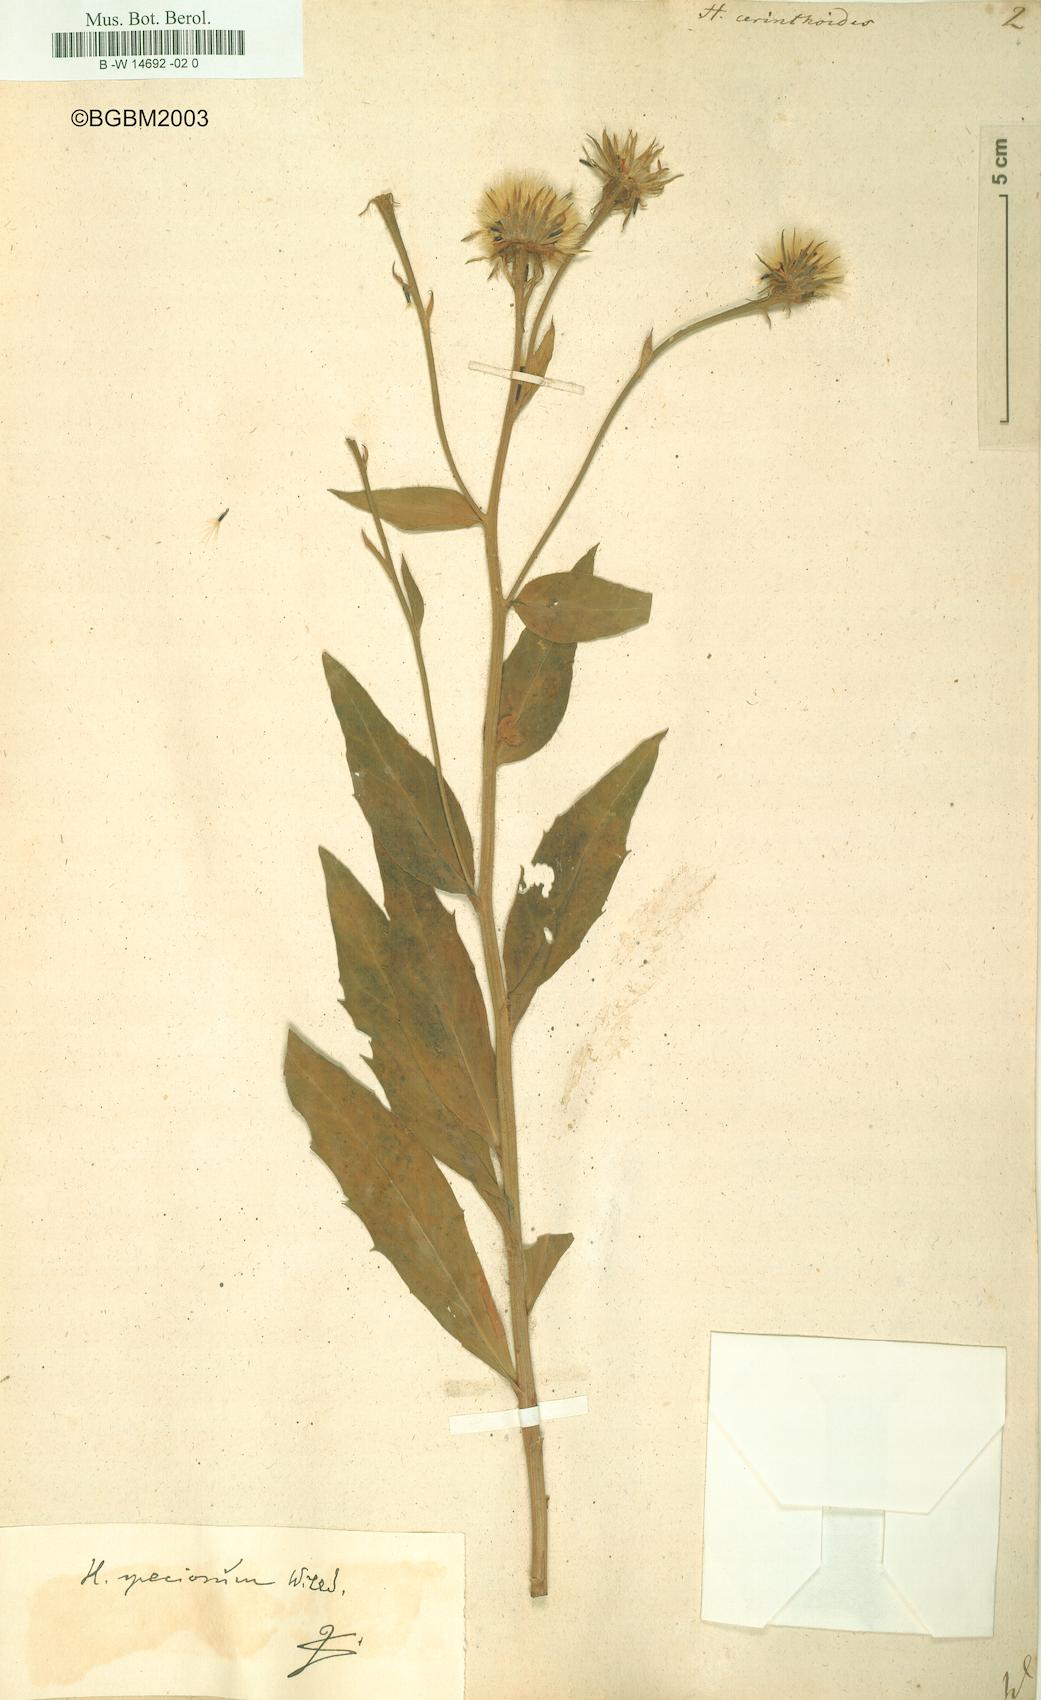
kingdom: Plantae
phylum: Tracheophyta
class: Magnoliopsida
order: Asterales
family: Asteraceae
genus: Hieracium
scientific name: Hieracium cerinthoides
